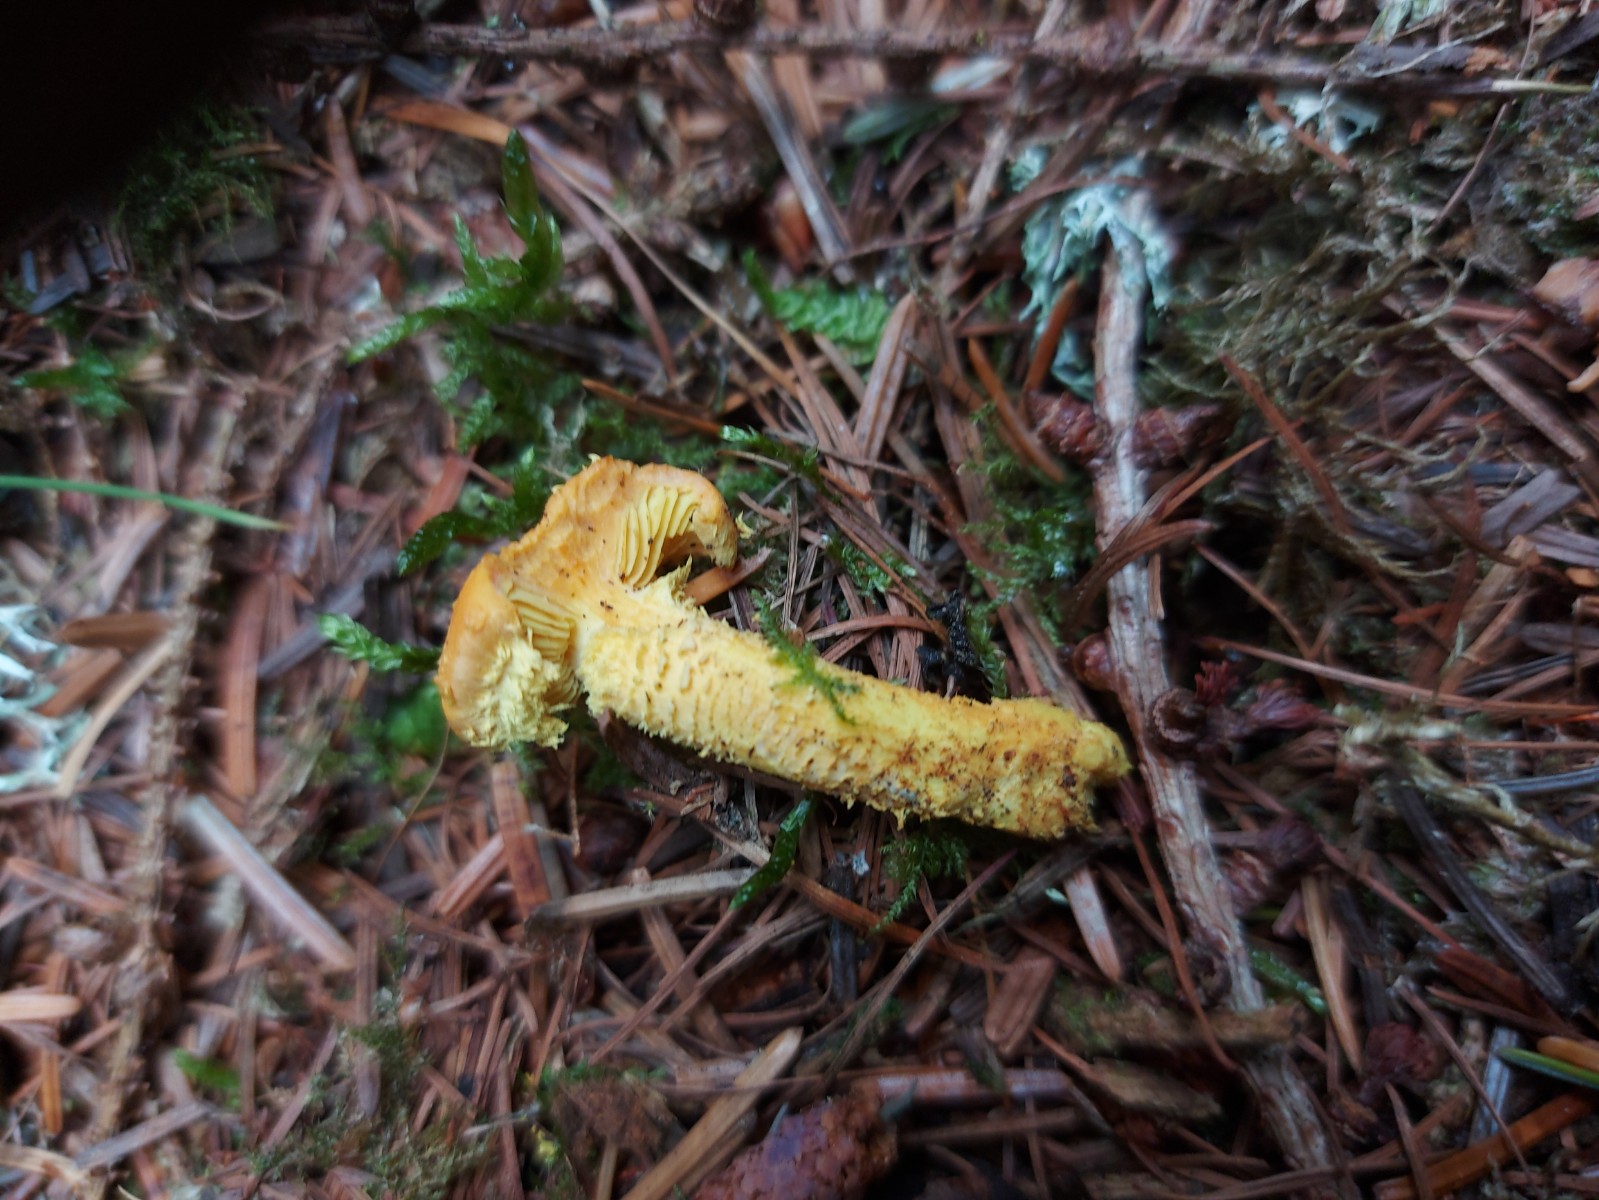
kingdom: Fungi
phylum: Basidiomycota
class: Agaricomycetes
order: Agaricales
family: Strophariaceae
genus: Pholiota
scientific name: Pholiota flammans
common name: flamme-skælhat
